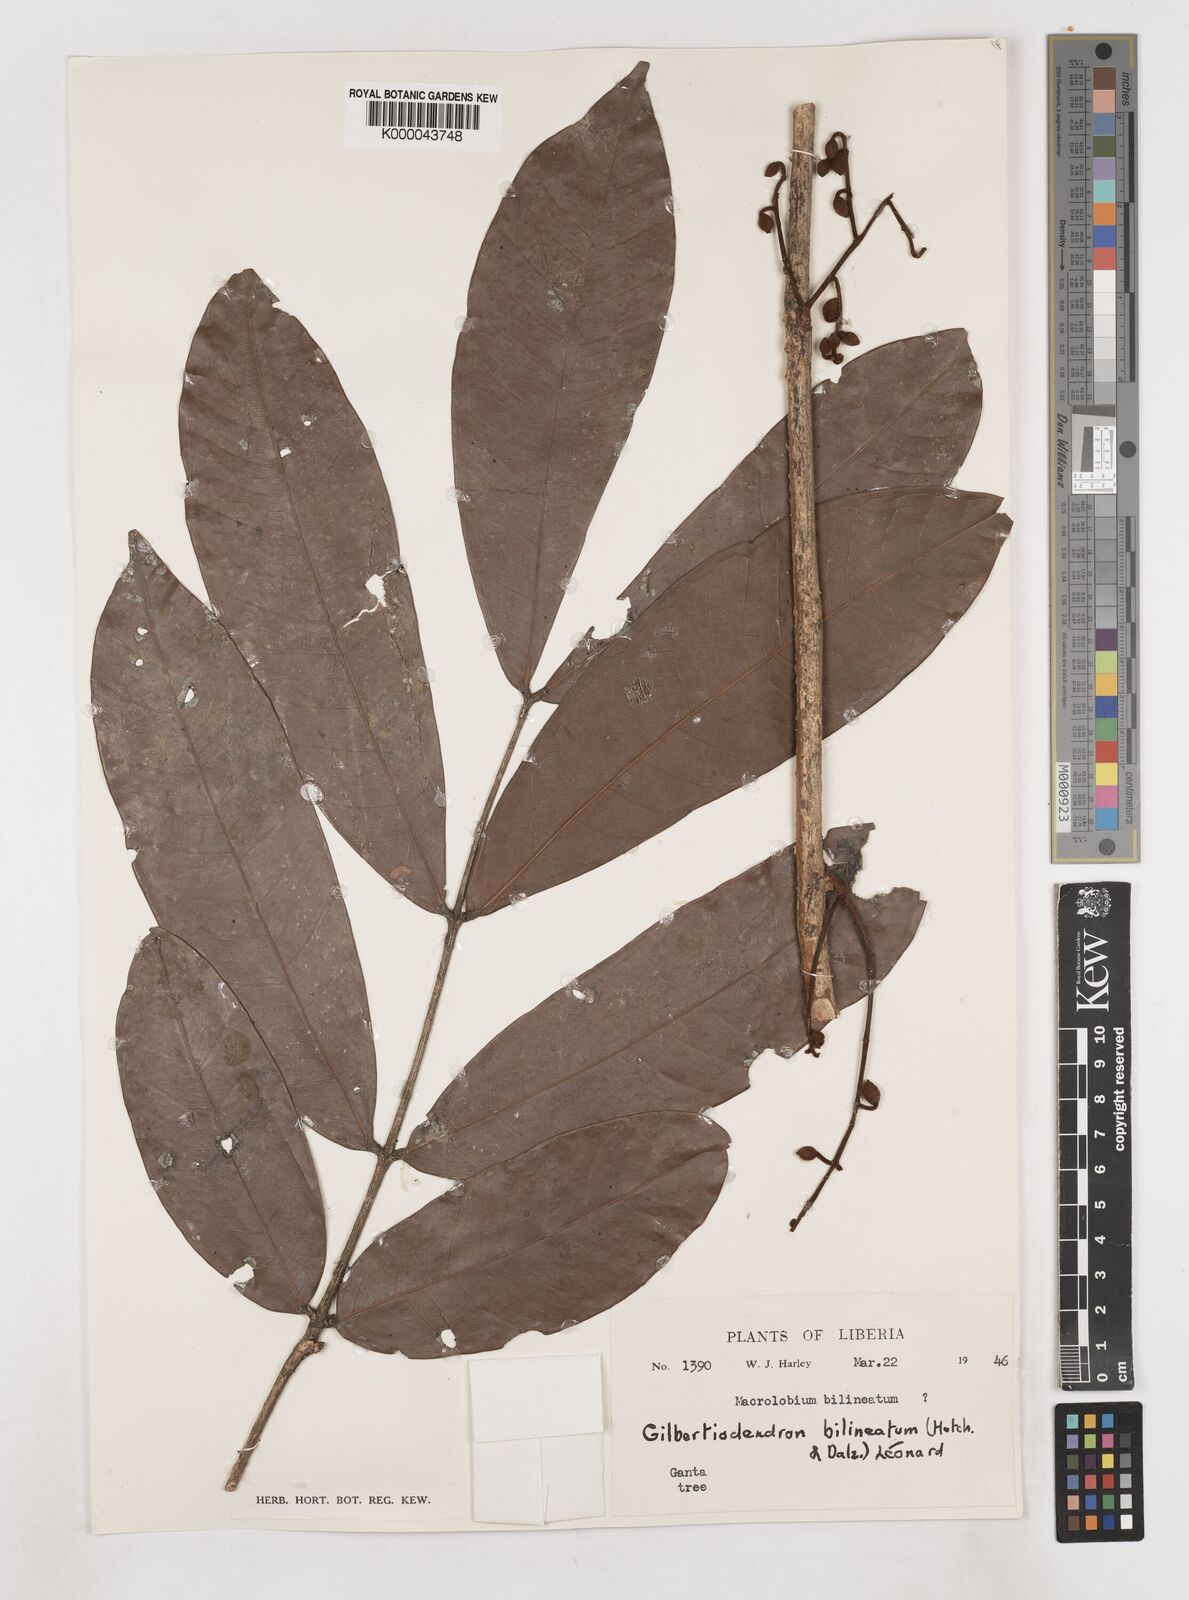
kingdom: Plantae
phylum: Tracheophyta
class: Magnoliopsida
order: Fabales
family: Fabaceae
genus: Gilbertiodendron
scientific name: Gilbertiodendron
